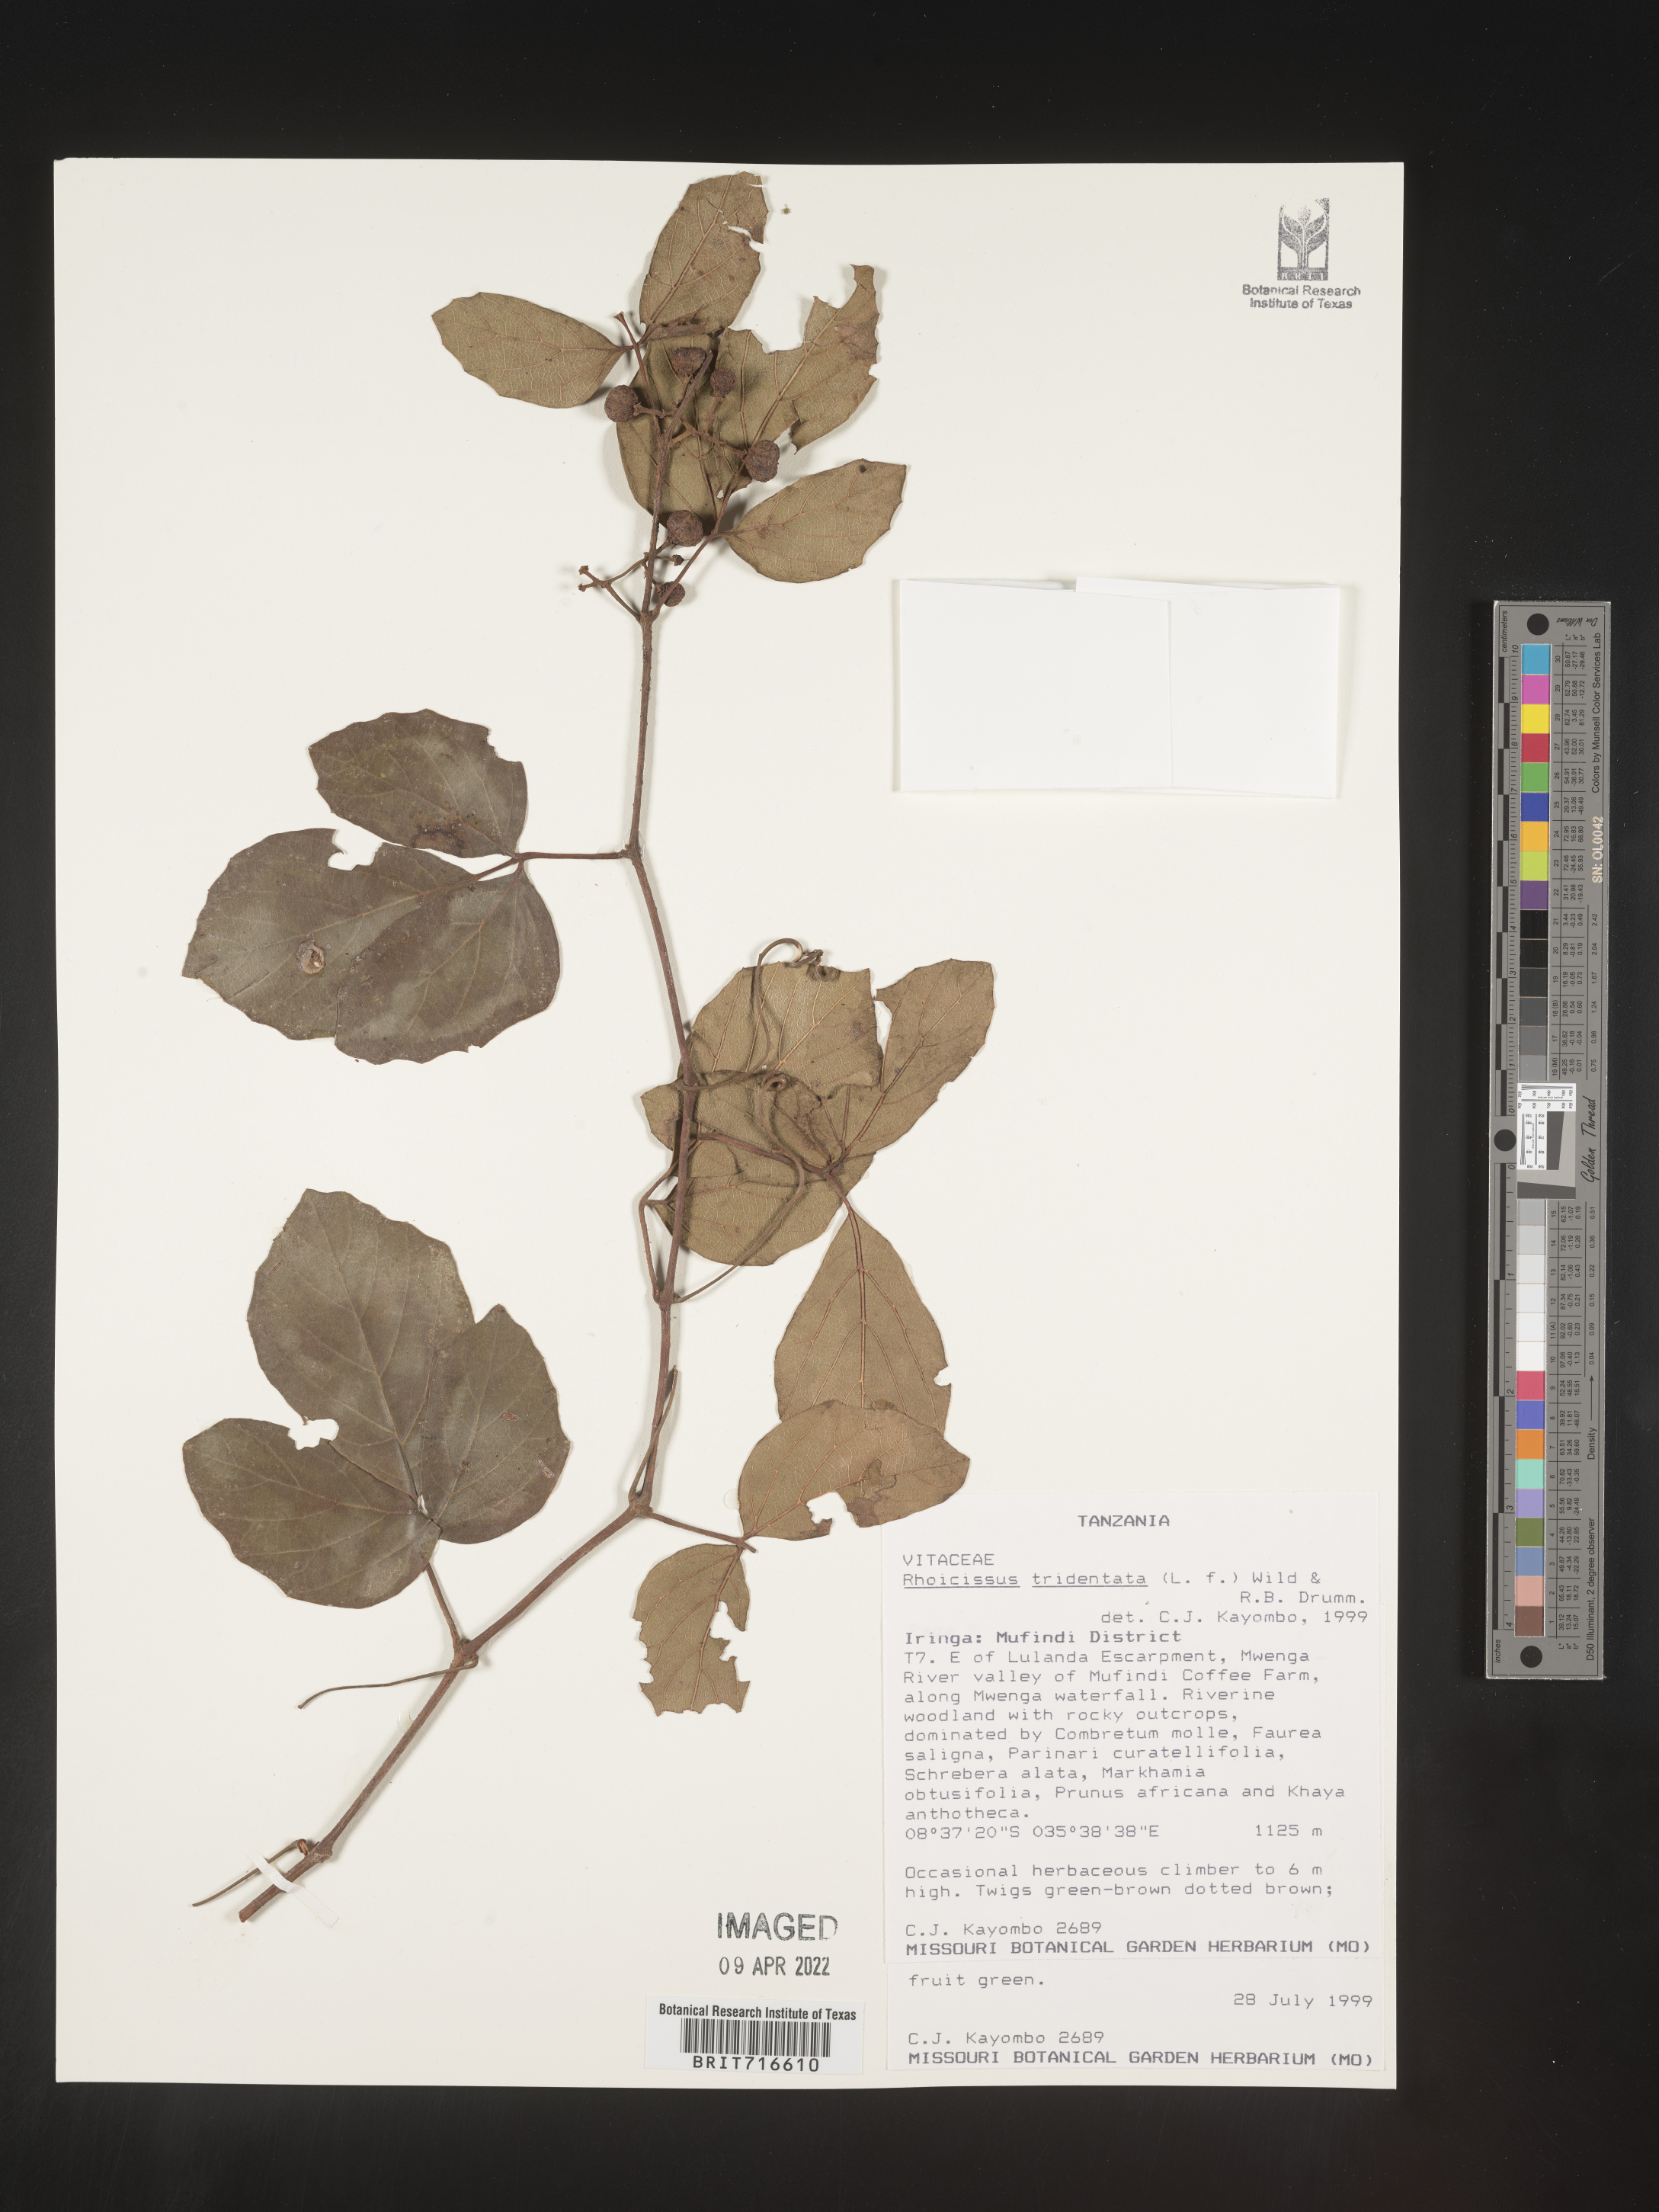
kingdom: Plantae
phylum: Tracheophyta
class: Magnoliopsida
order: Vitales
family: Vitaceae
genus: Rhoicissus
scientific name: Rhoicissus tridentata
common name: Common forest grape
